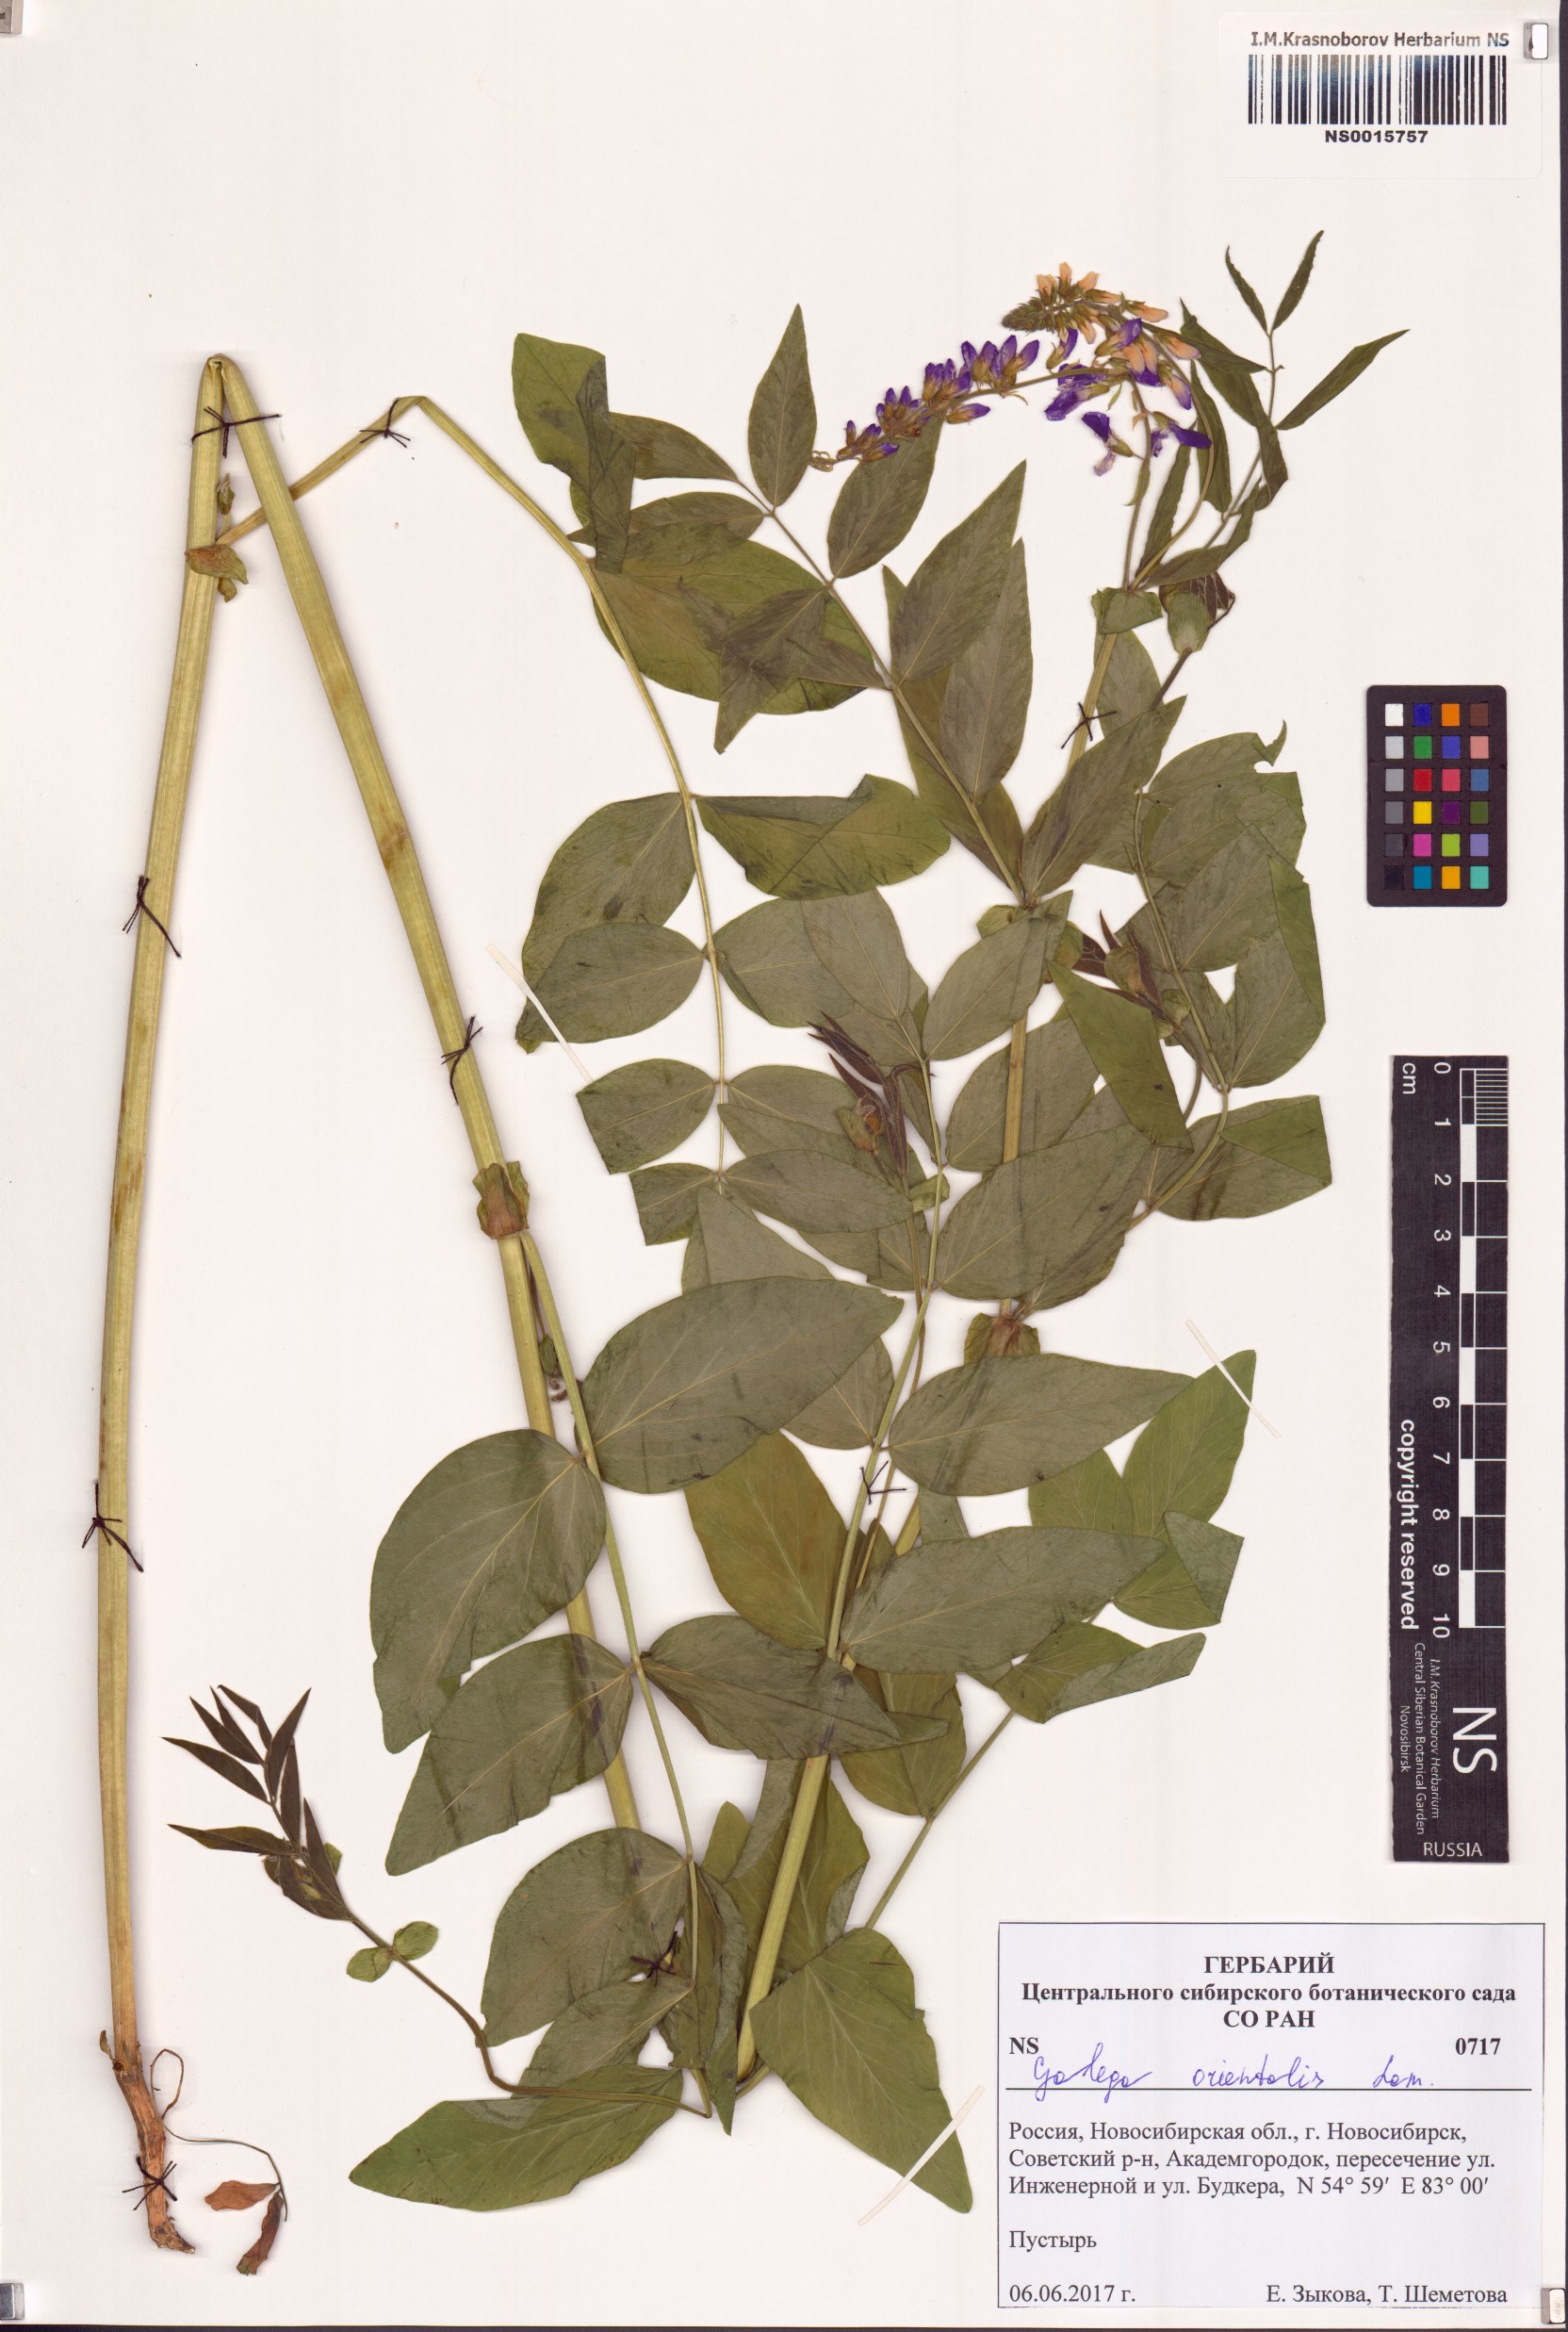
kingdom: Plantae
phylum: Tracheophyta
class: Magnoliopsida
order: Fabales
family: Fabaceae
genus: Galega
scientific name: Galega orientalis
